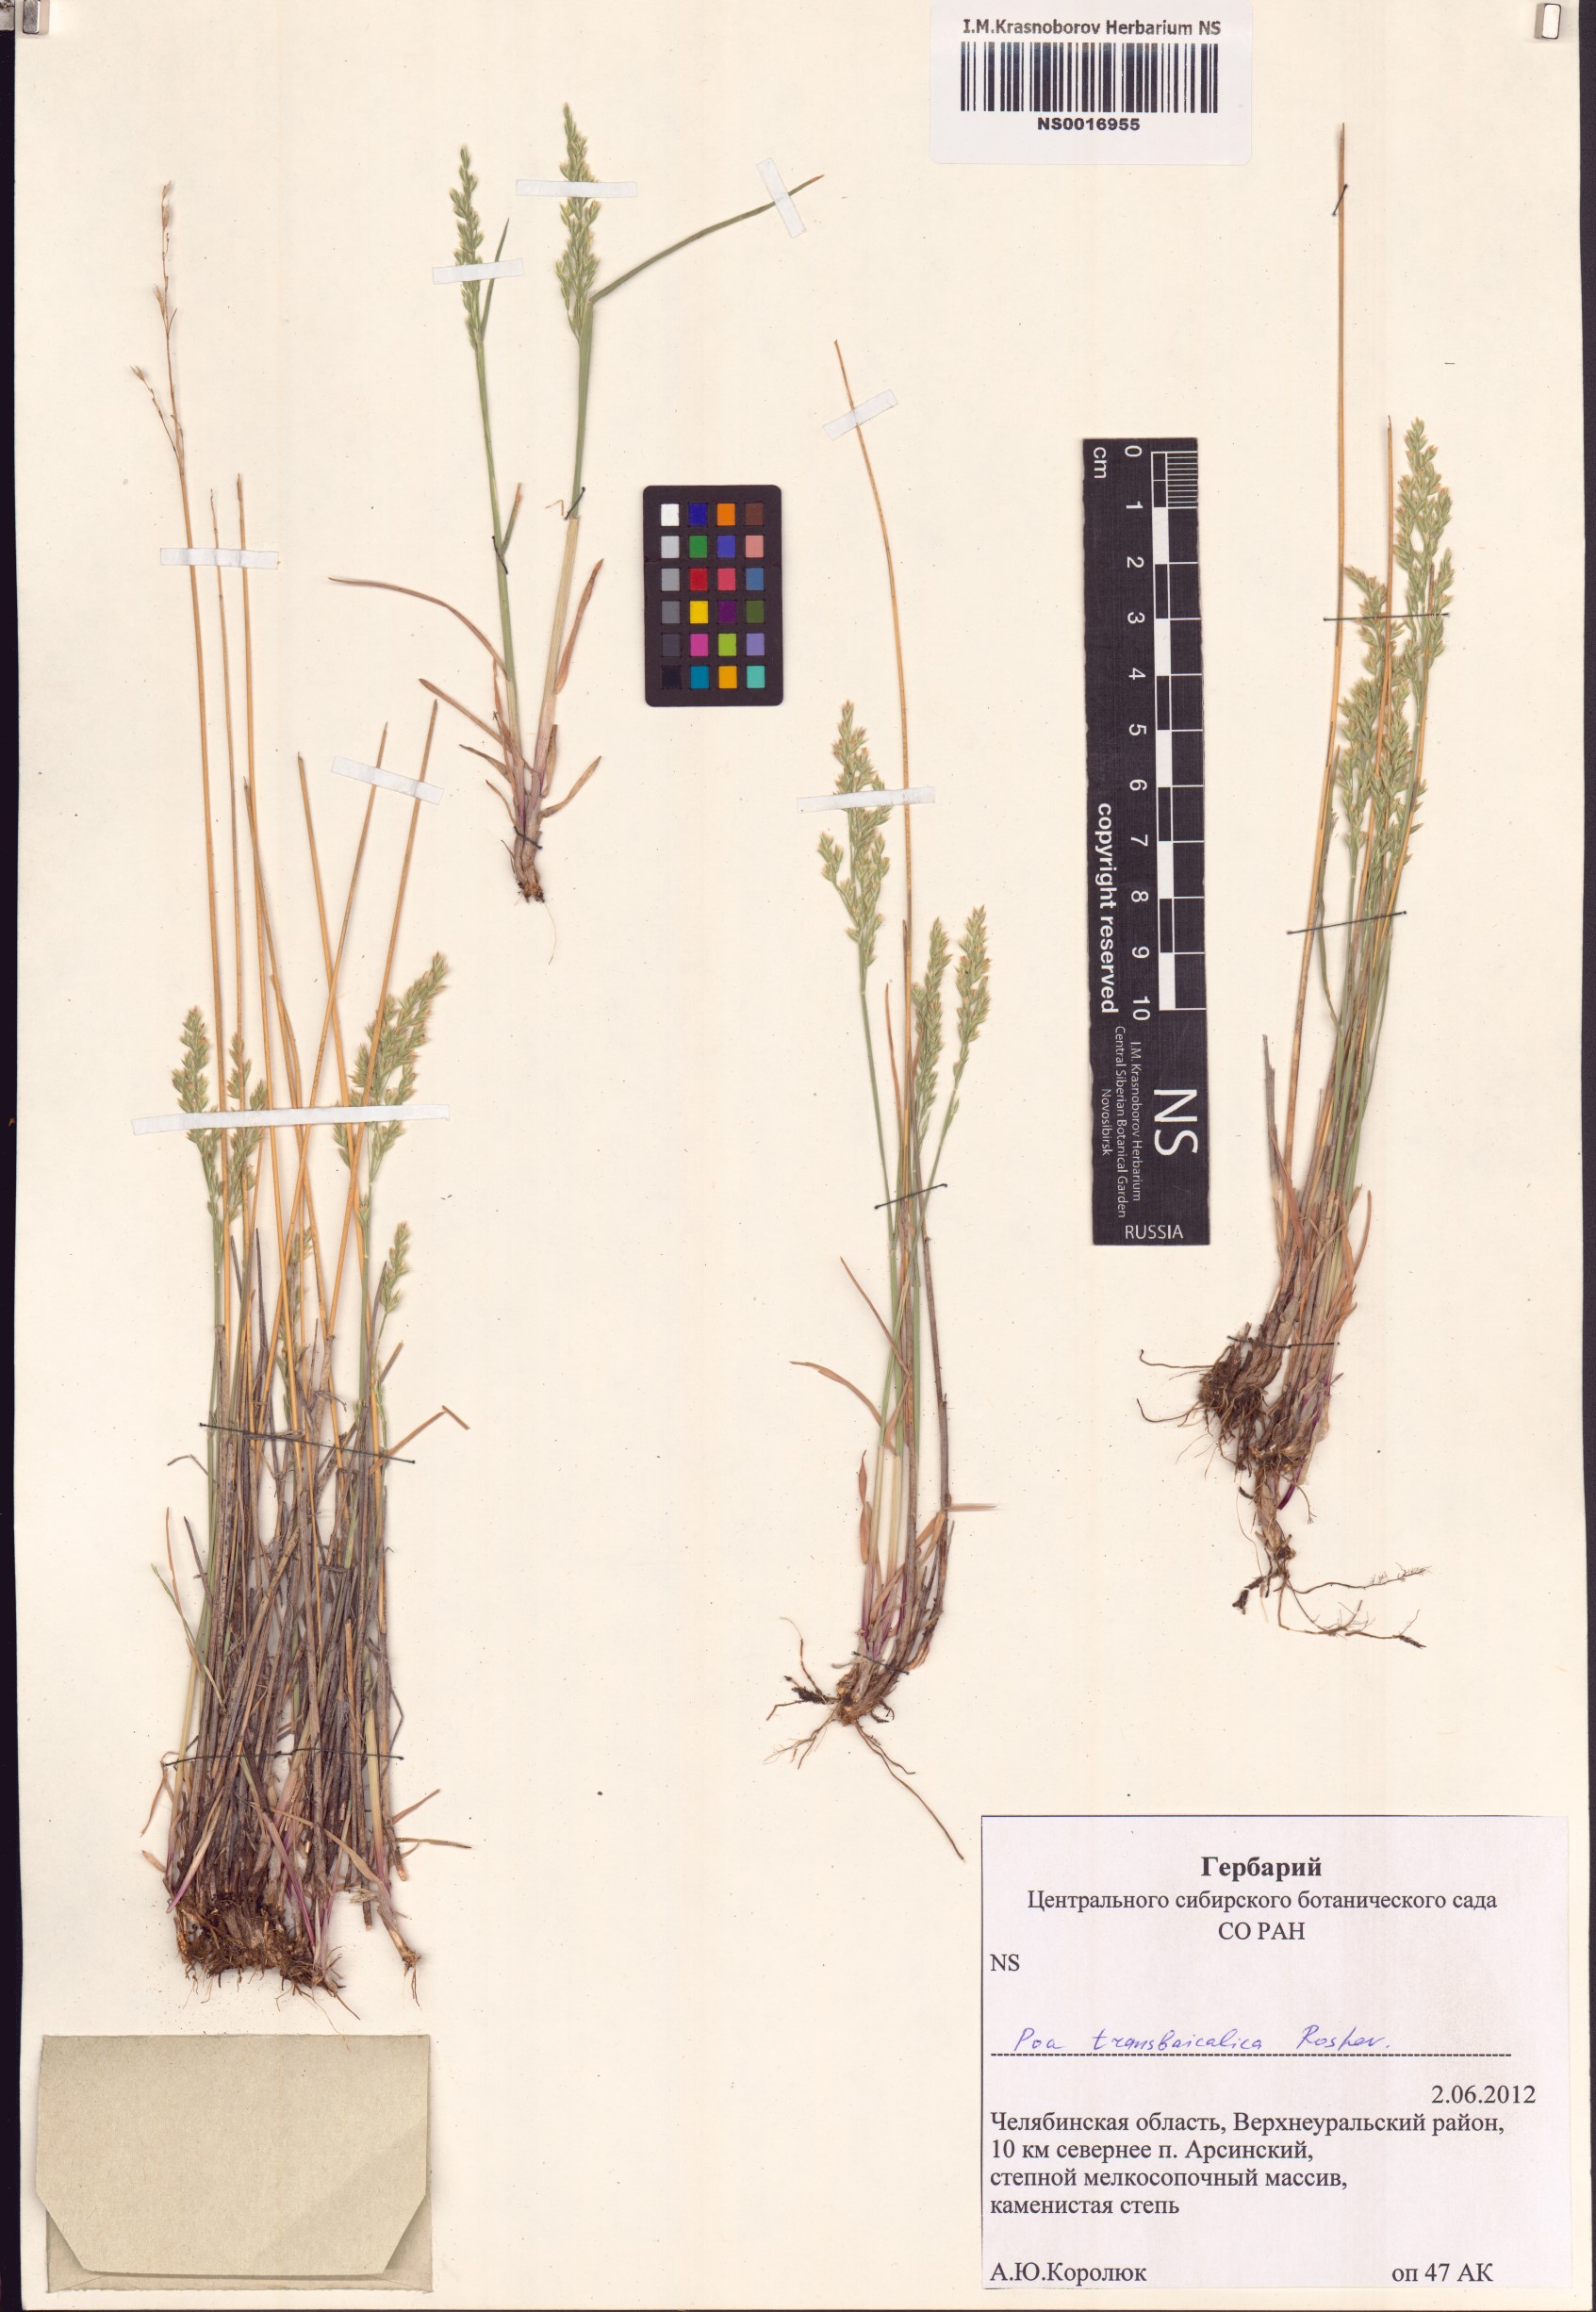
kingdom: Plantae
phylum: Tracheophyta
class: Liliopsida
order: Poales
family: Poaceae
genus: Poa
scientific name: Poa versicolor
